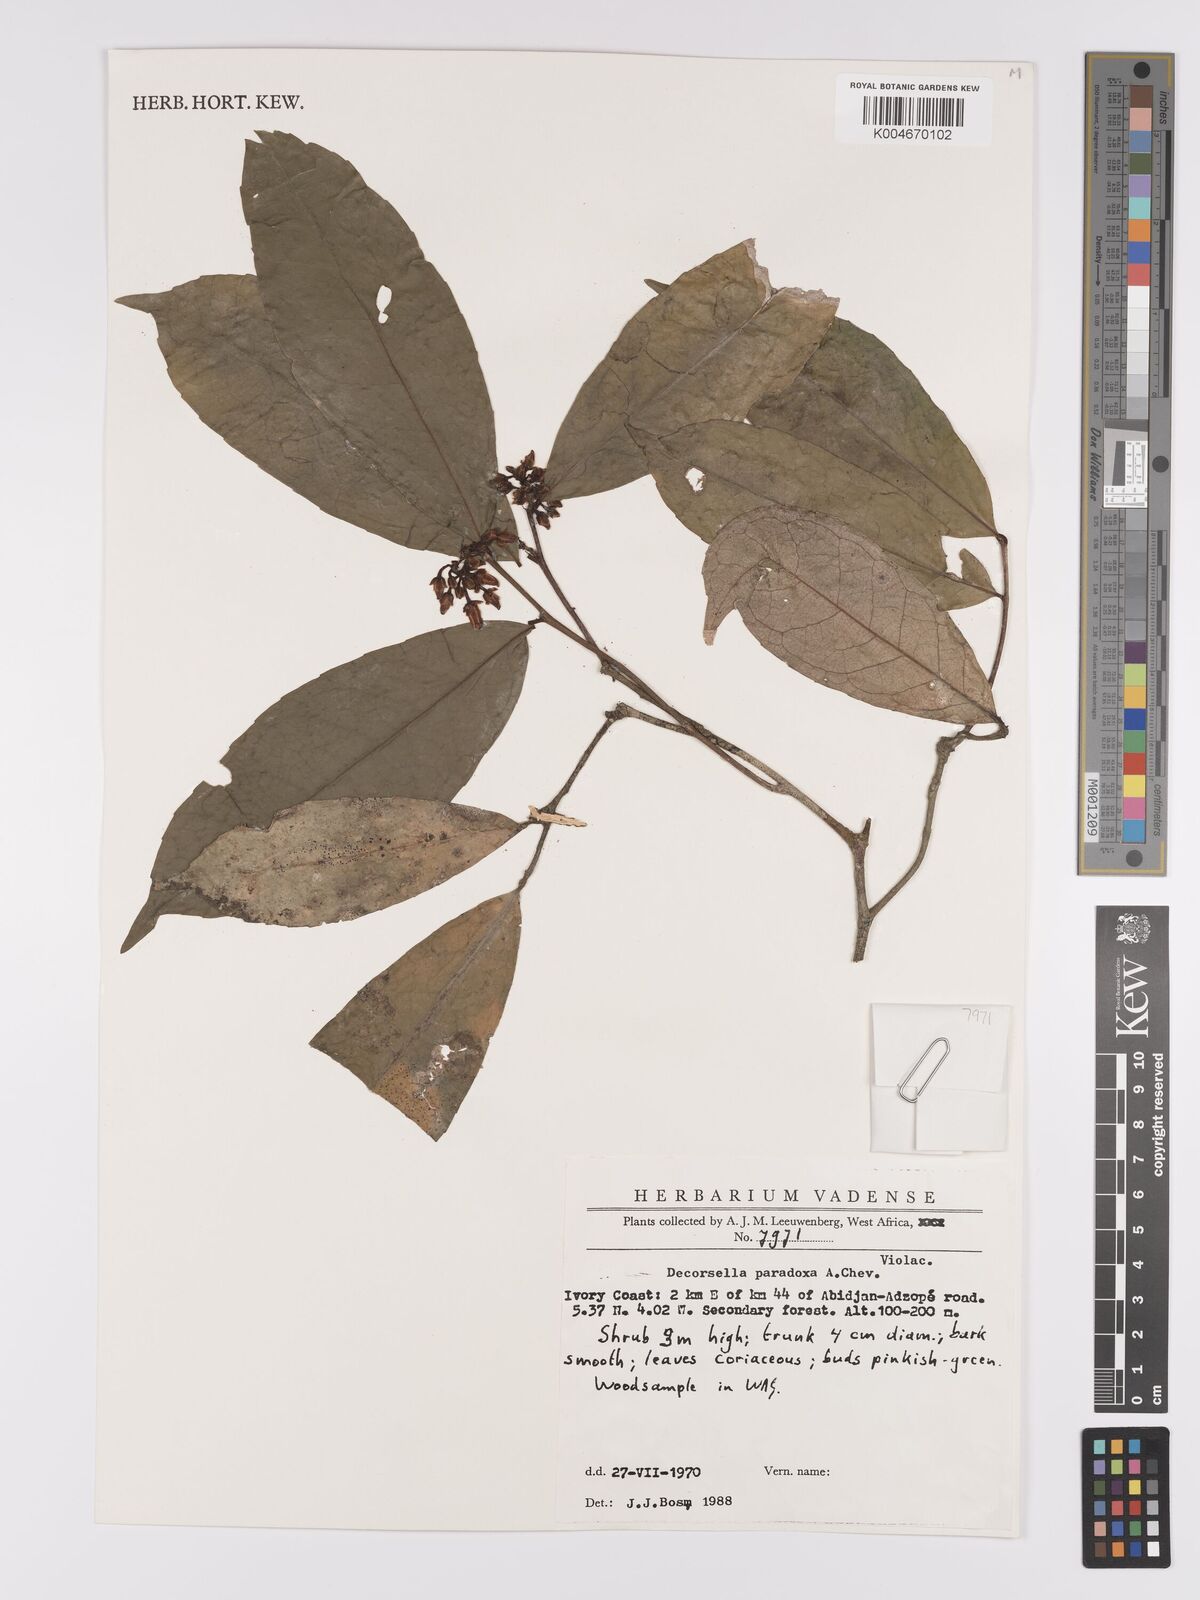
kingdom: Plantae
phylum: Tracheophyta
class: Magnoliopsida
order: Malpighiales
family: Violaceae
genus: Decorsella
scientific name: Decorsella paradoxa
